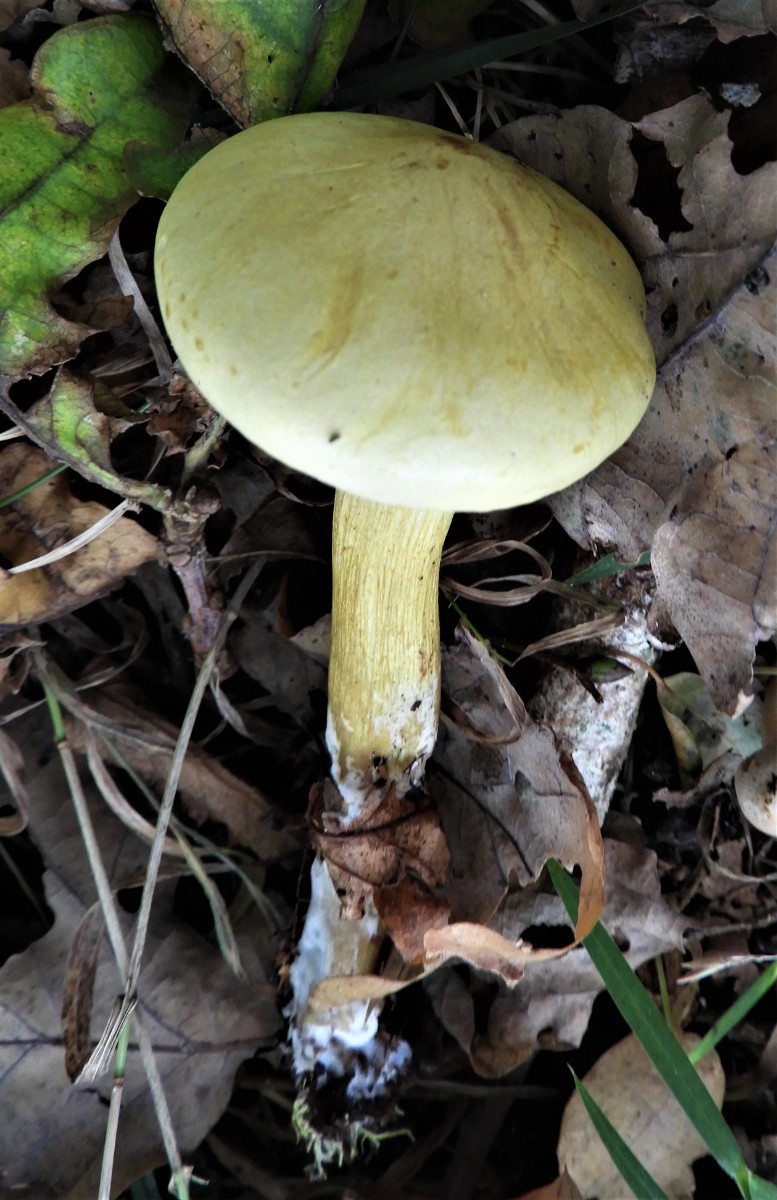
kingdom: Fungi
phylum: Basidiomycota
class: Agaricomycetes
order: Agaricales
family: Tricholomataceae
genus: Tricholoma
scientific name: Tricholoma sulphureum
